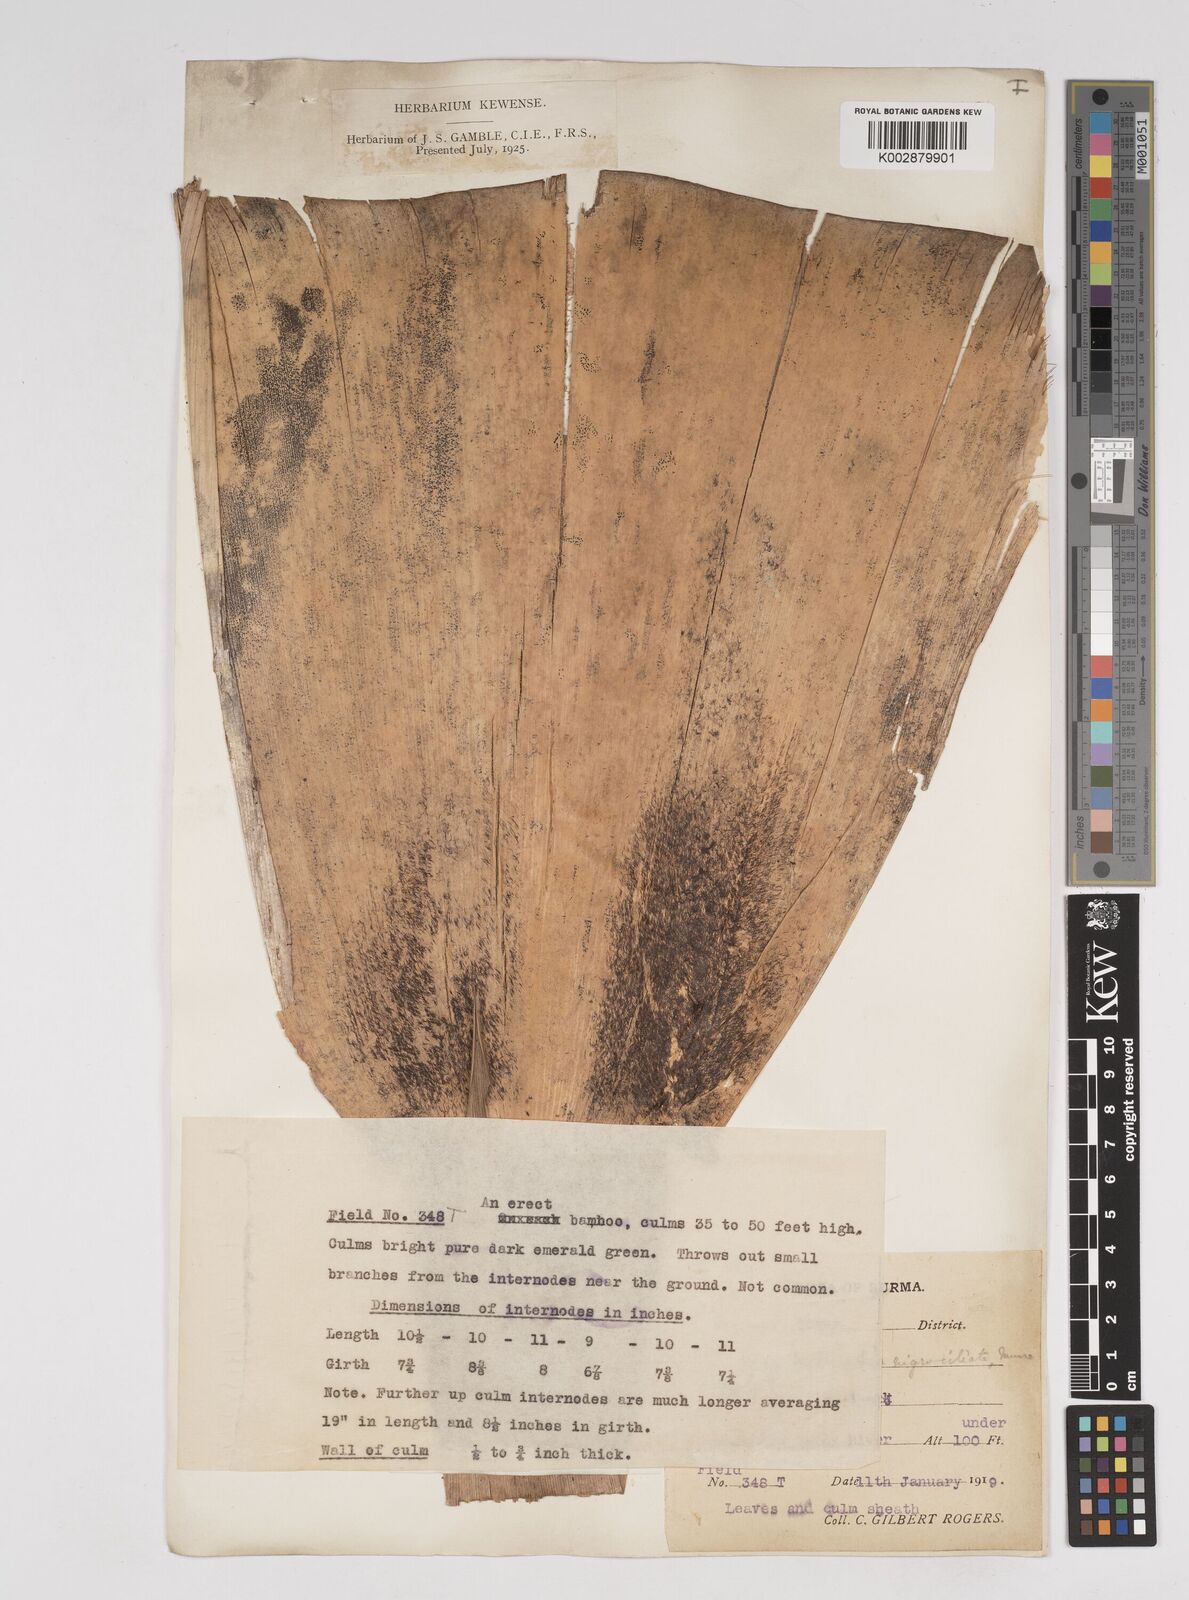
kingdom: Plantae
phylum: Tracheophyta
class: Liliopsida
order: Poales
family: Poaceae
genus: Gigantochloa
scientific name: Gigantochloa nigrociliata
